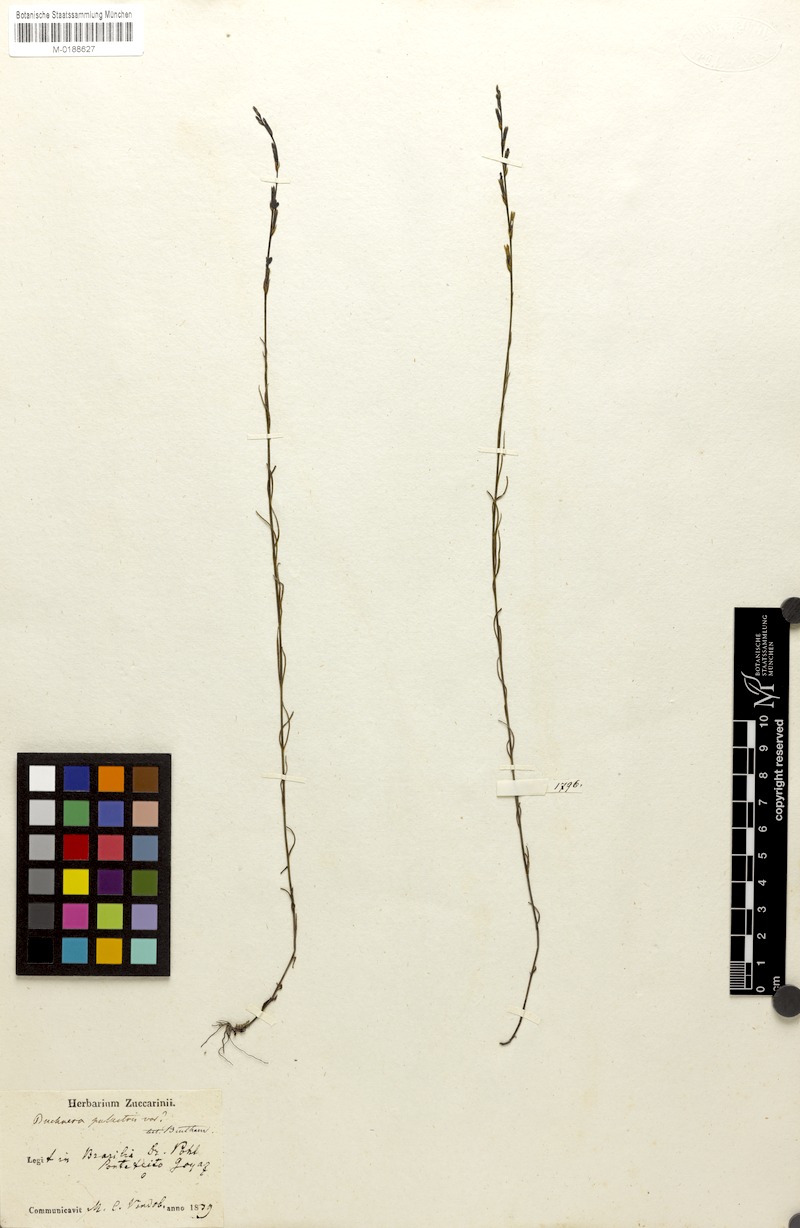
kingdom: Plantae
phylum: Tracheophyta
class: Magnoliopsida
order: Lamiales
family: Orobanchaceae
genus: Buchnera
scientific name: Buchnera palustris
